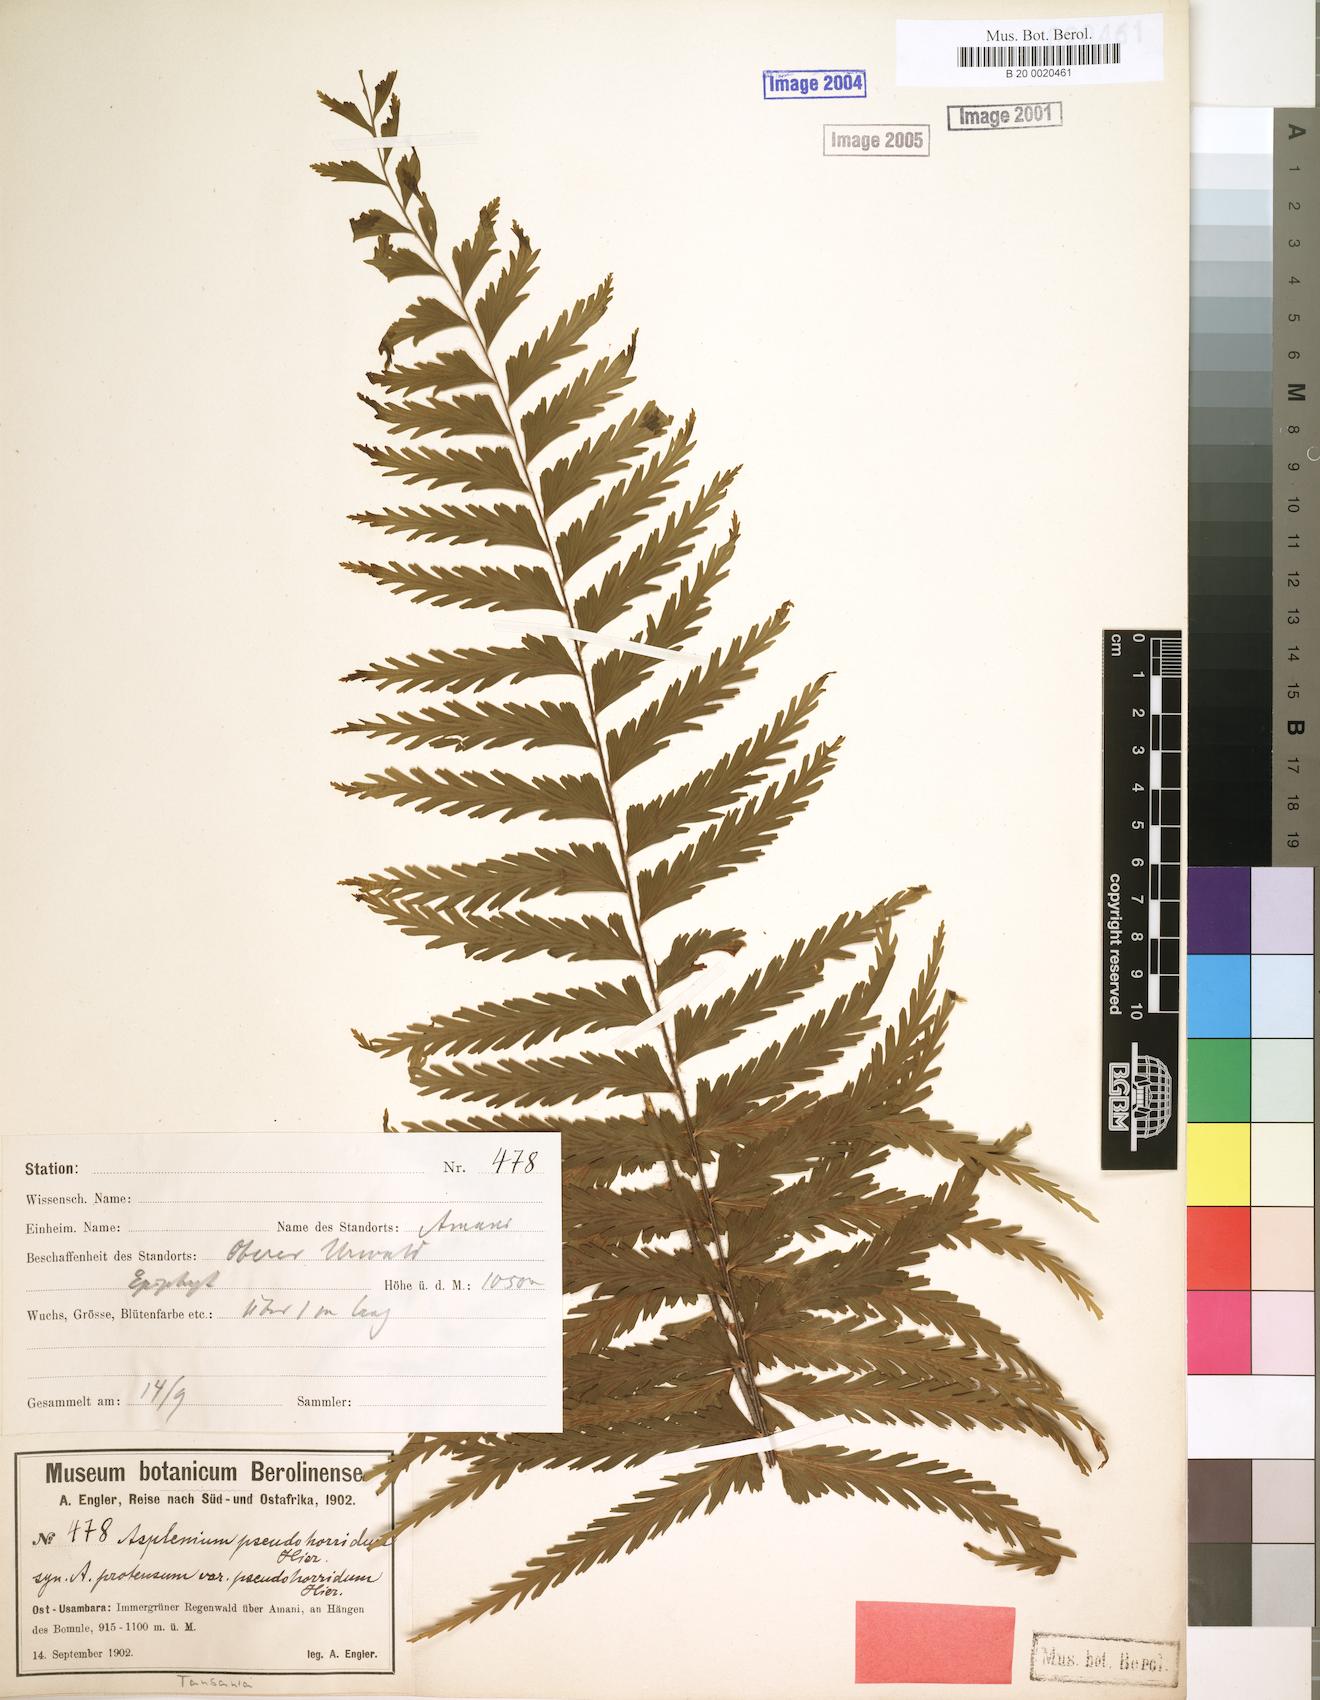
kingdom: Plantae
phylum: Tracheophyta
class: Polypodiopsida
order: Polypodiales
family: Aspleniaceae
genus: Asplenium
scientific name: Asplenium pellucidum
